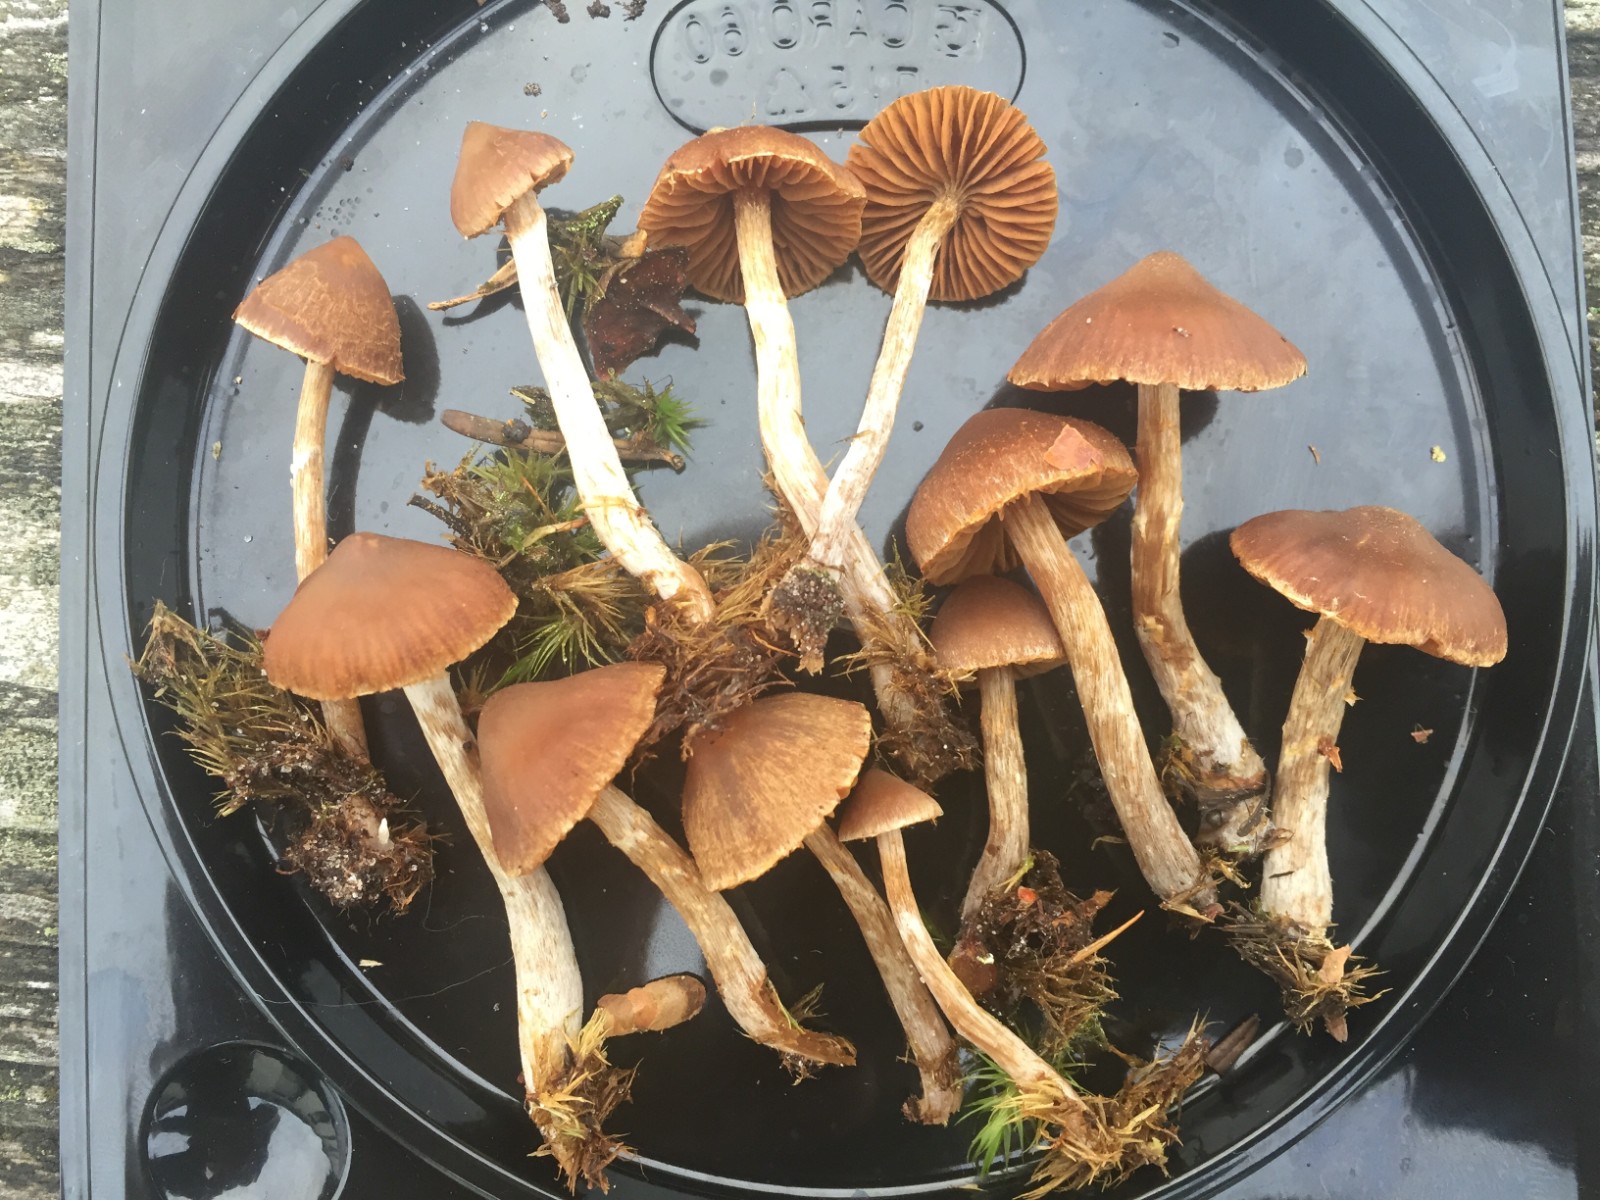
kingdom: Fungi
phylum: Basidiomycota
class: Agaricomycetes
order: Agaricales
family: Cortinariaceae
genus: Cortinarius
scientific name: Cortinarius pilatii
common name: Piláts slørhat
